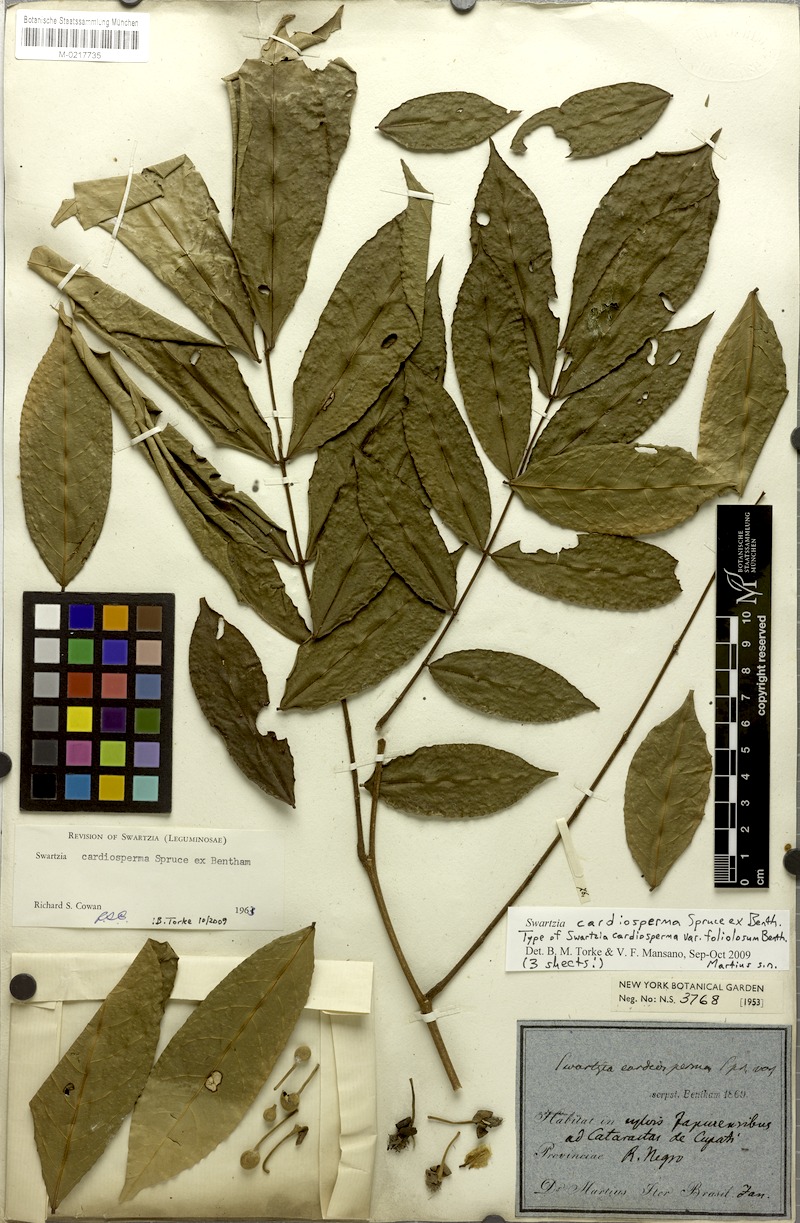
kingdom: Plantae
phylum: Tracheophyta
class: Magnoliopsida
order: Fabales
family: Fabaceae
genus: Swartzia
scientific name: Swartzia cardiosperma
